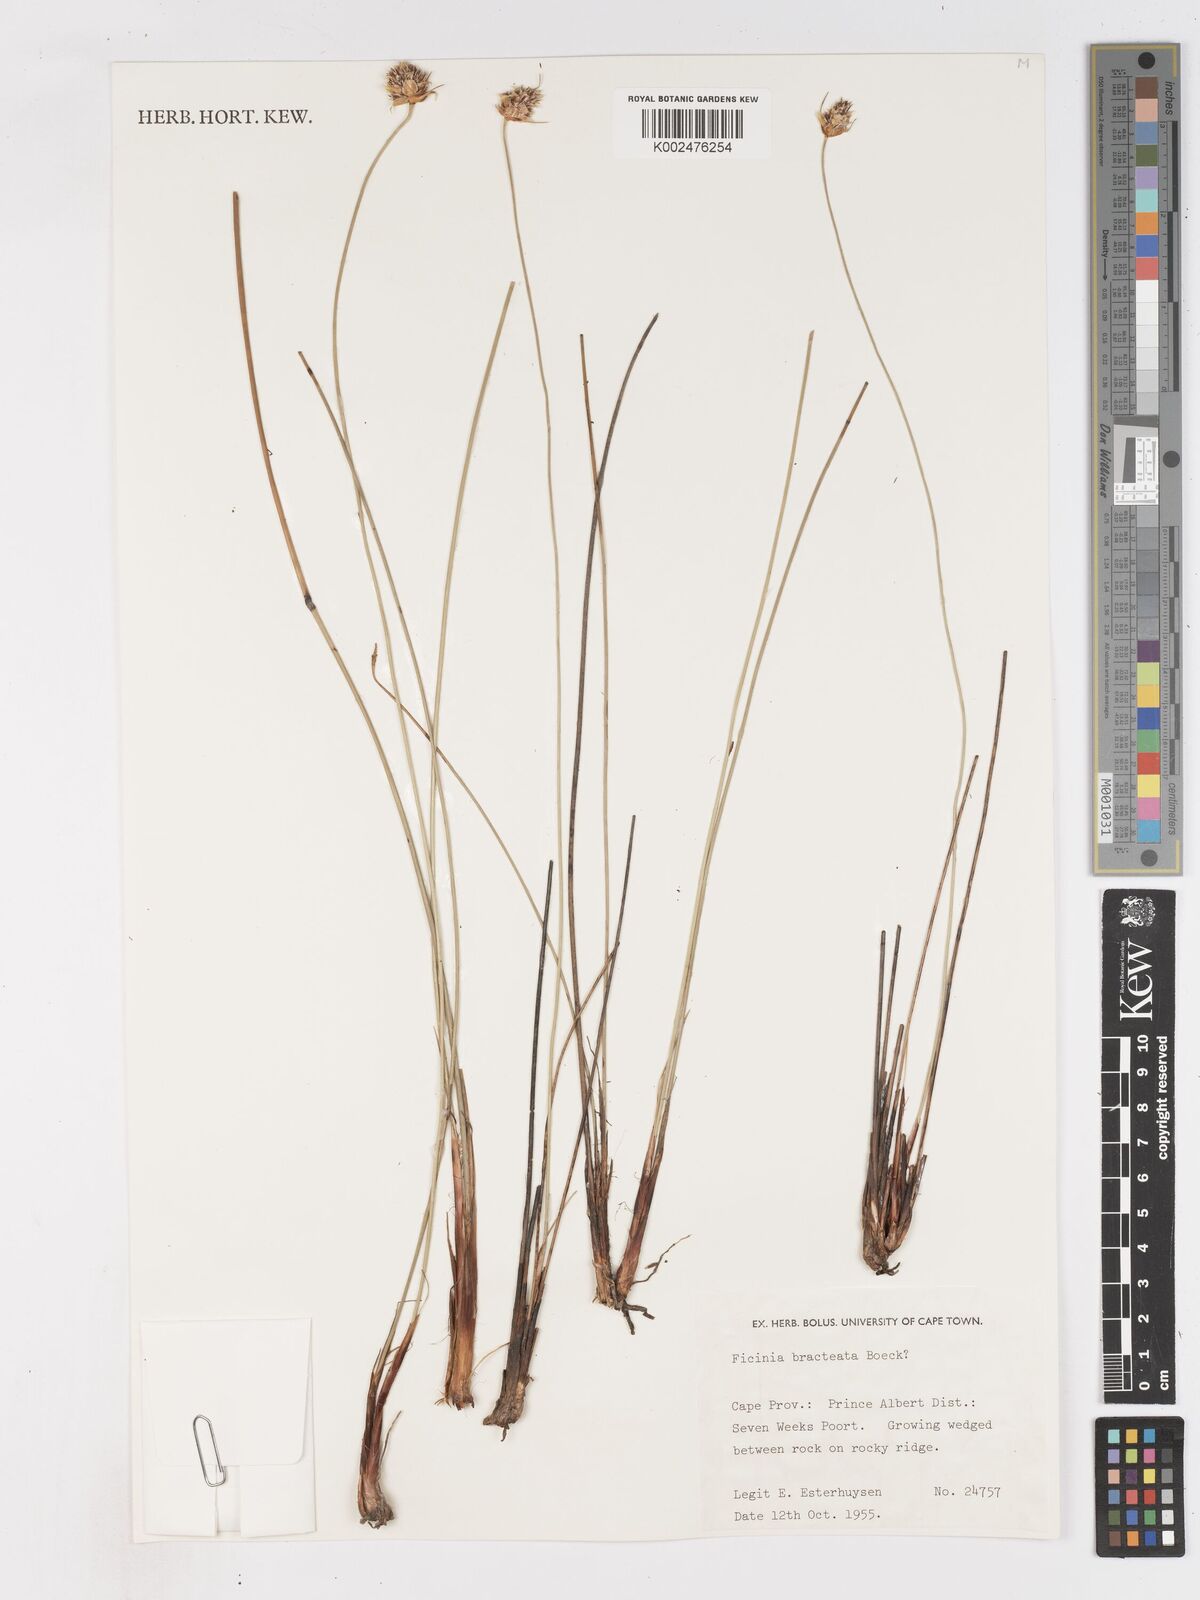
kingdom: Plantae
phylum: Tracheophyta
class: Liliopsida
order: Poales
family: Cyperaceae
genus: Ficinia
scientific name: Ficinia nigrescens
